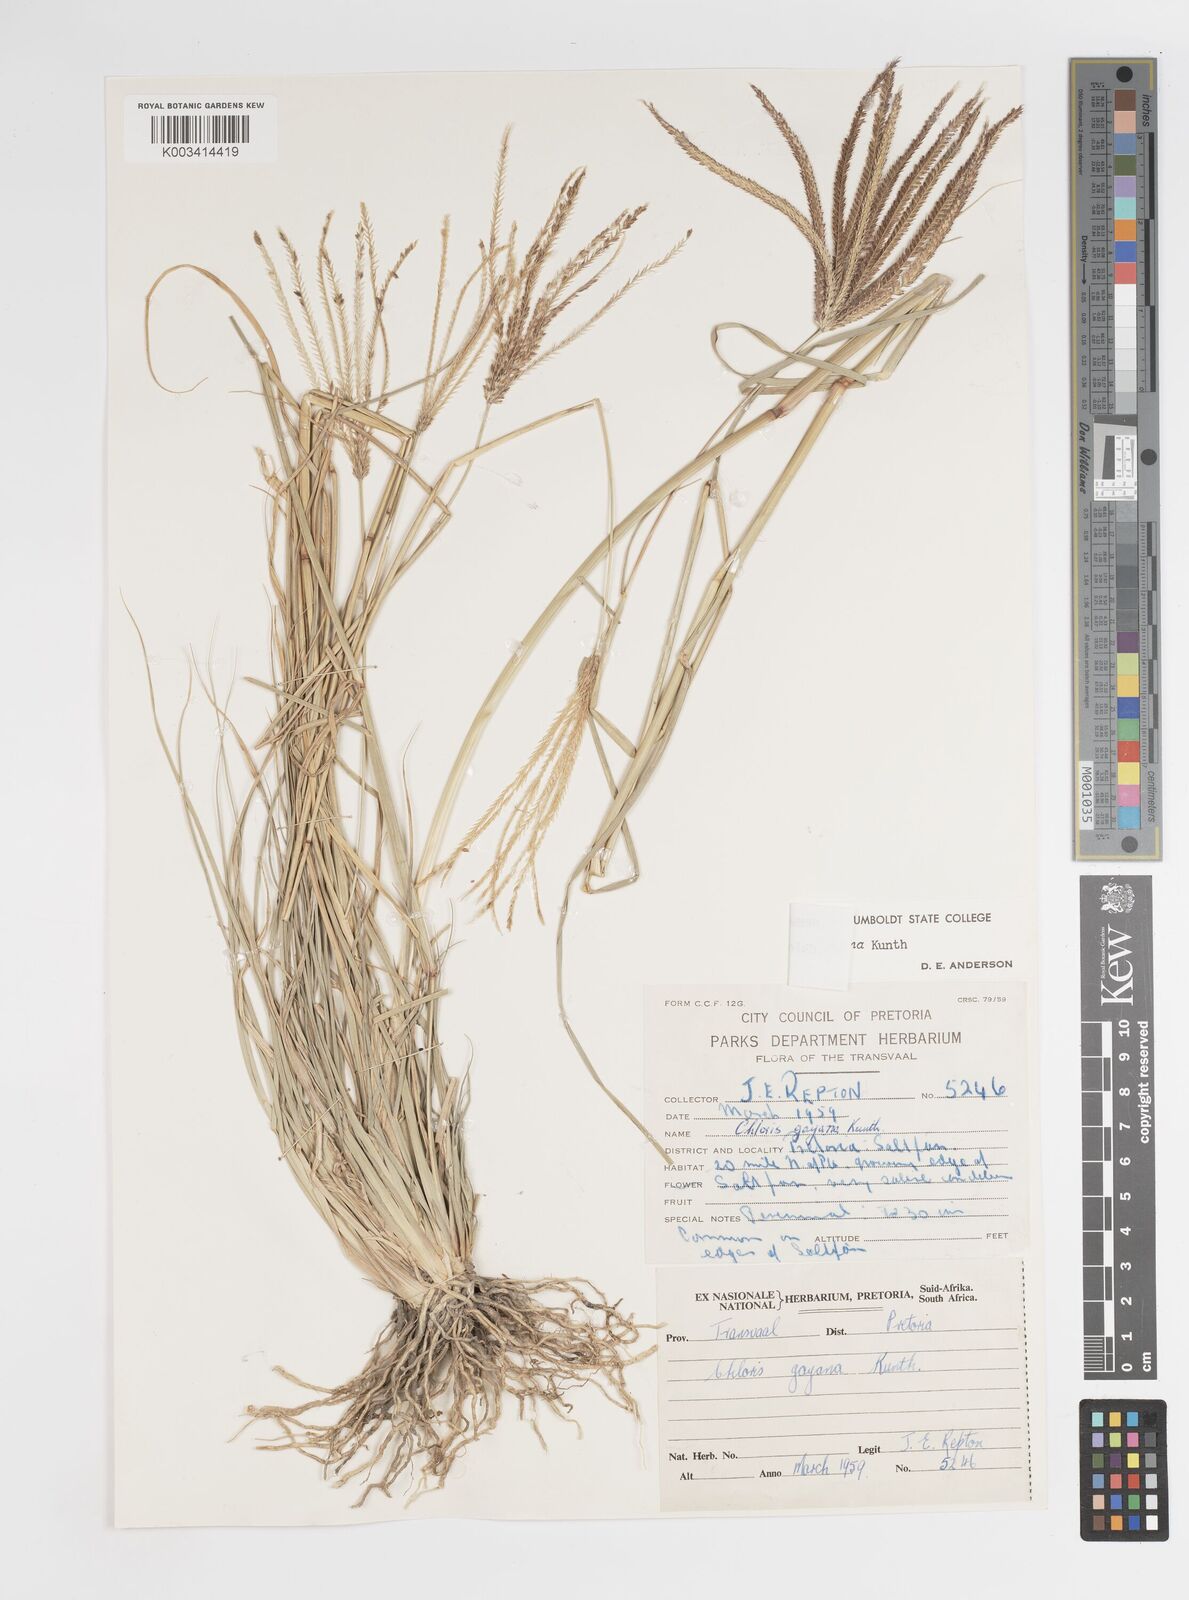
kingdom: Plantae
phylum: Tracheophyta
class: Liliopsida
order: Poales
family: Poaceae
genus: Chloris
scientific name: Chloris gayana
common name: Rhodes grass
